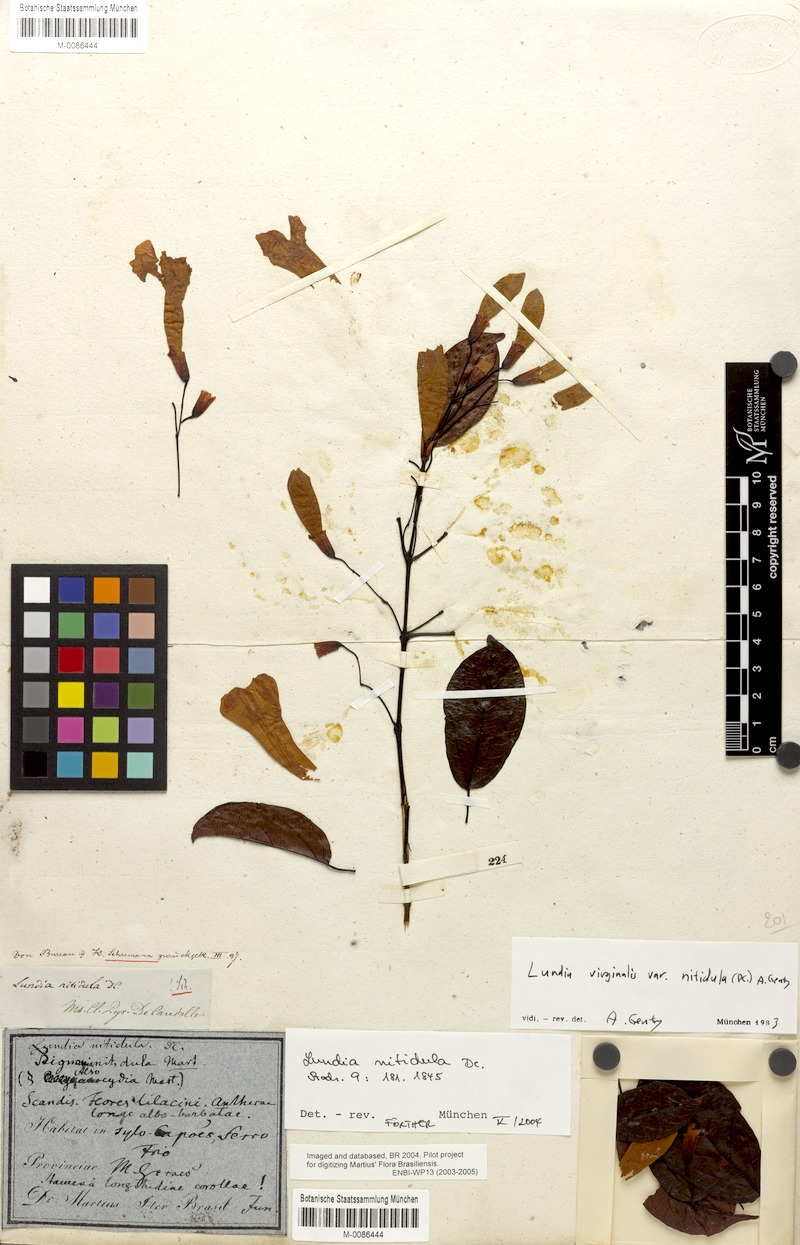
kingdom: Plantae
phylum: Tracheophyta
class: Magnoliopsida
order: Lamiales
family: Bignoniaceae
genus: Lundia
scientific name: Lundia virginalis
